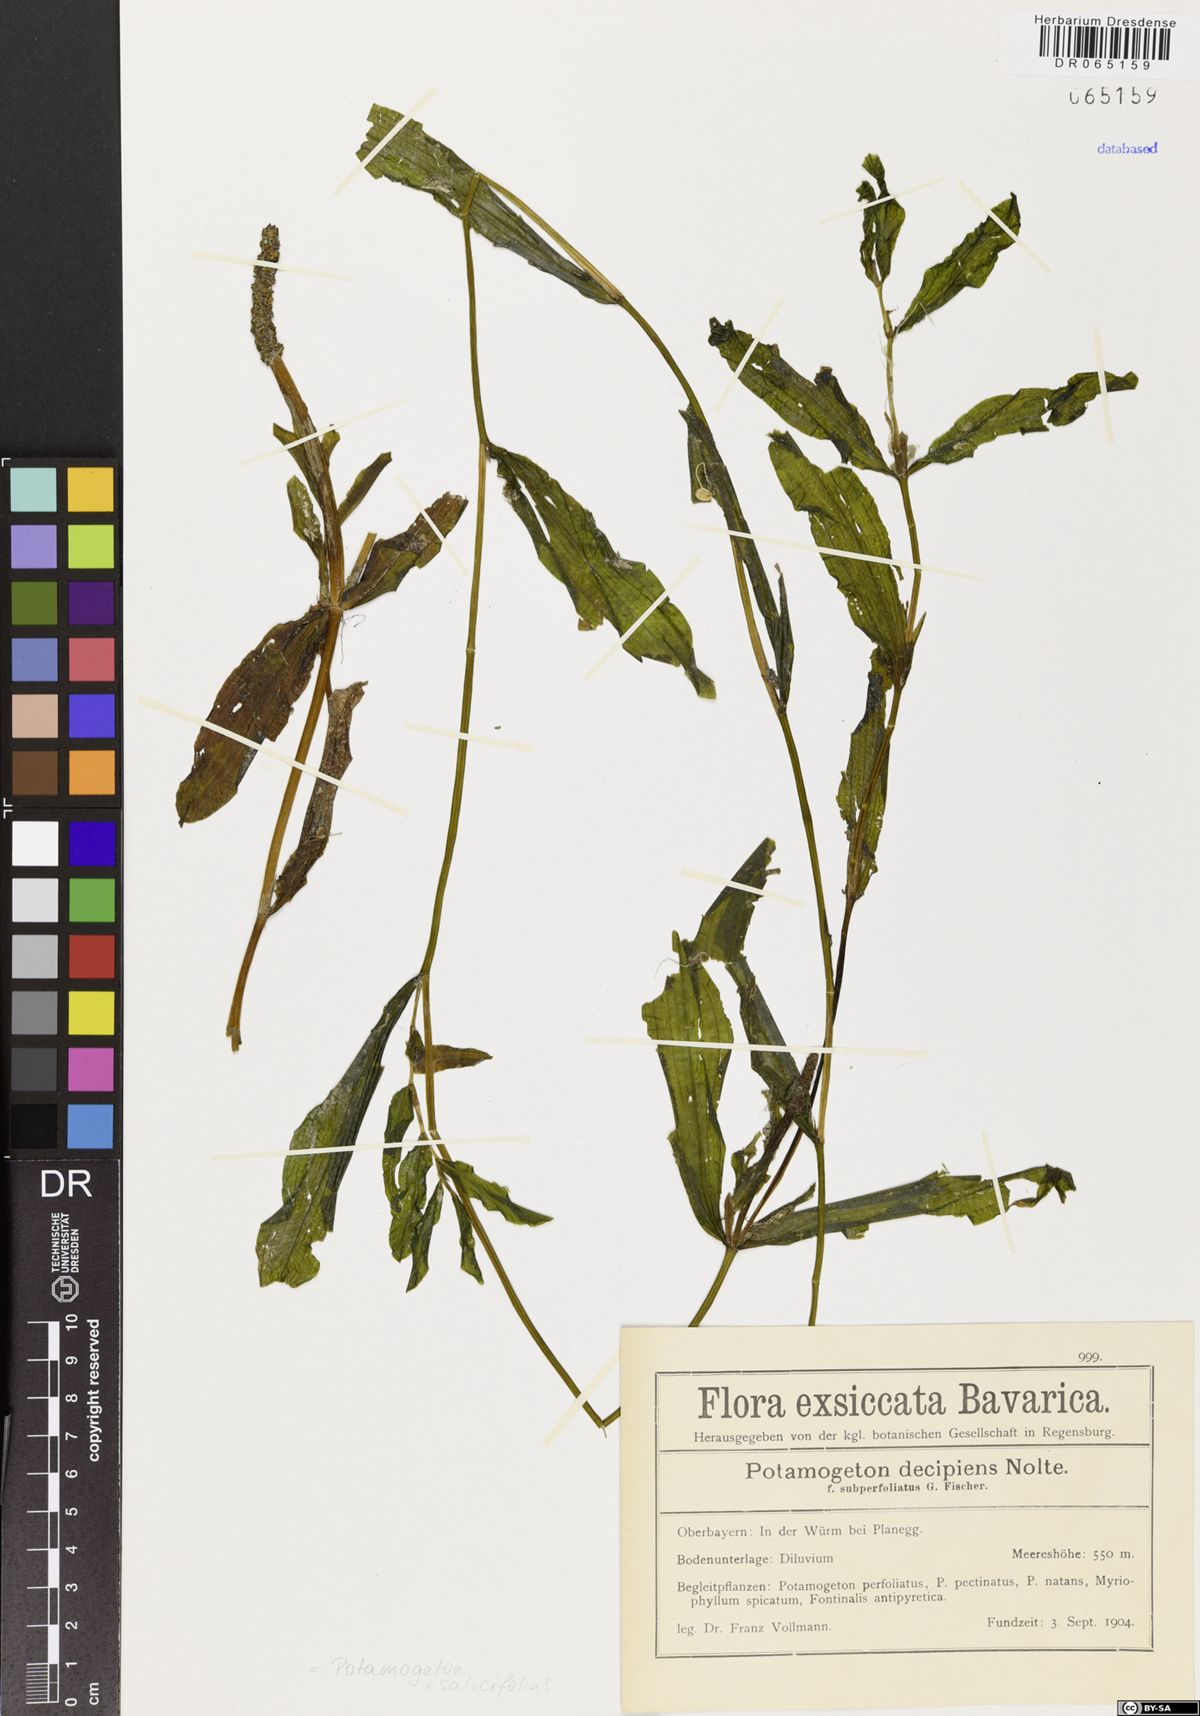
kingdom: Plantae
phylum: Tracheophyta
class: Liliopsida
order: Alismatales
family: Potamogetonaceae
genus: Potamogeton
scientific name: Potamogeton salicifolius
